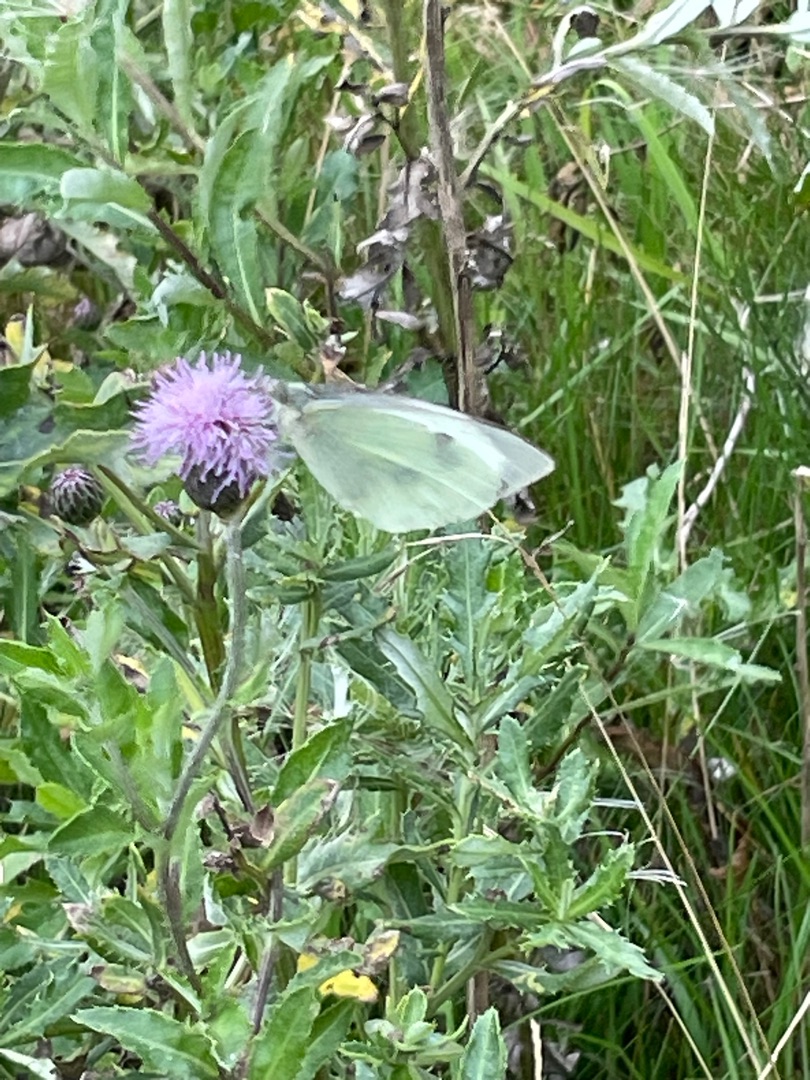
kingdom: Animalia
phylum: Arthropoda
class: Insecta
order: Lepidoptera
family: Pieridae
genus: Pieris
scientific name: Pieris brassicae
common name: Stor kålsommerfugl
